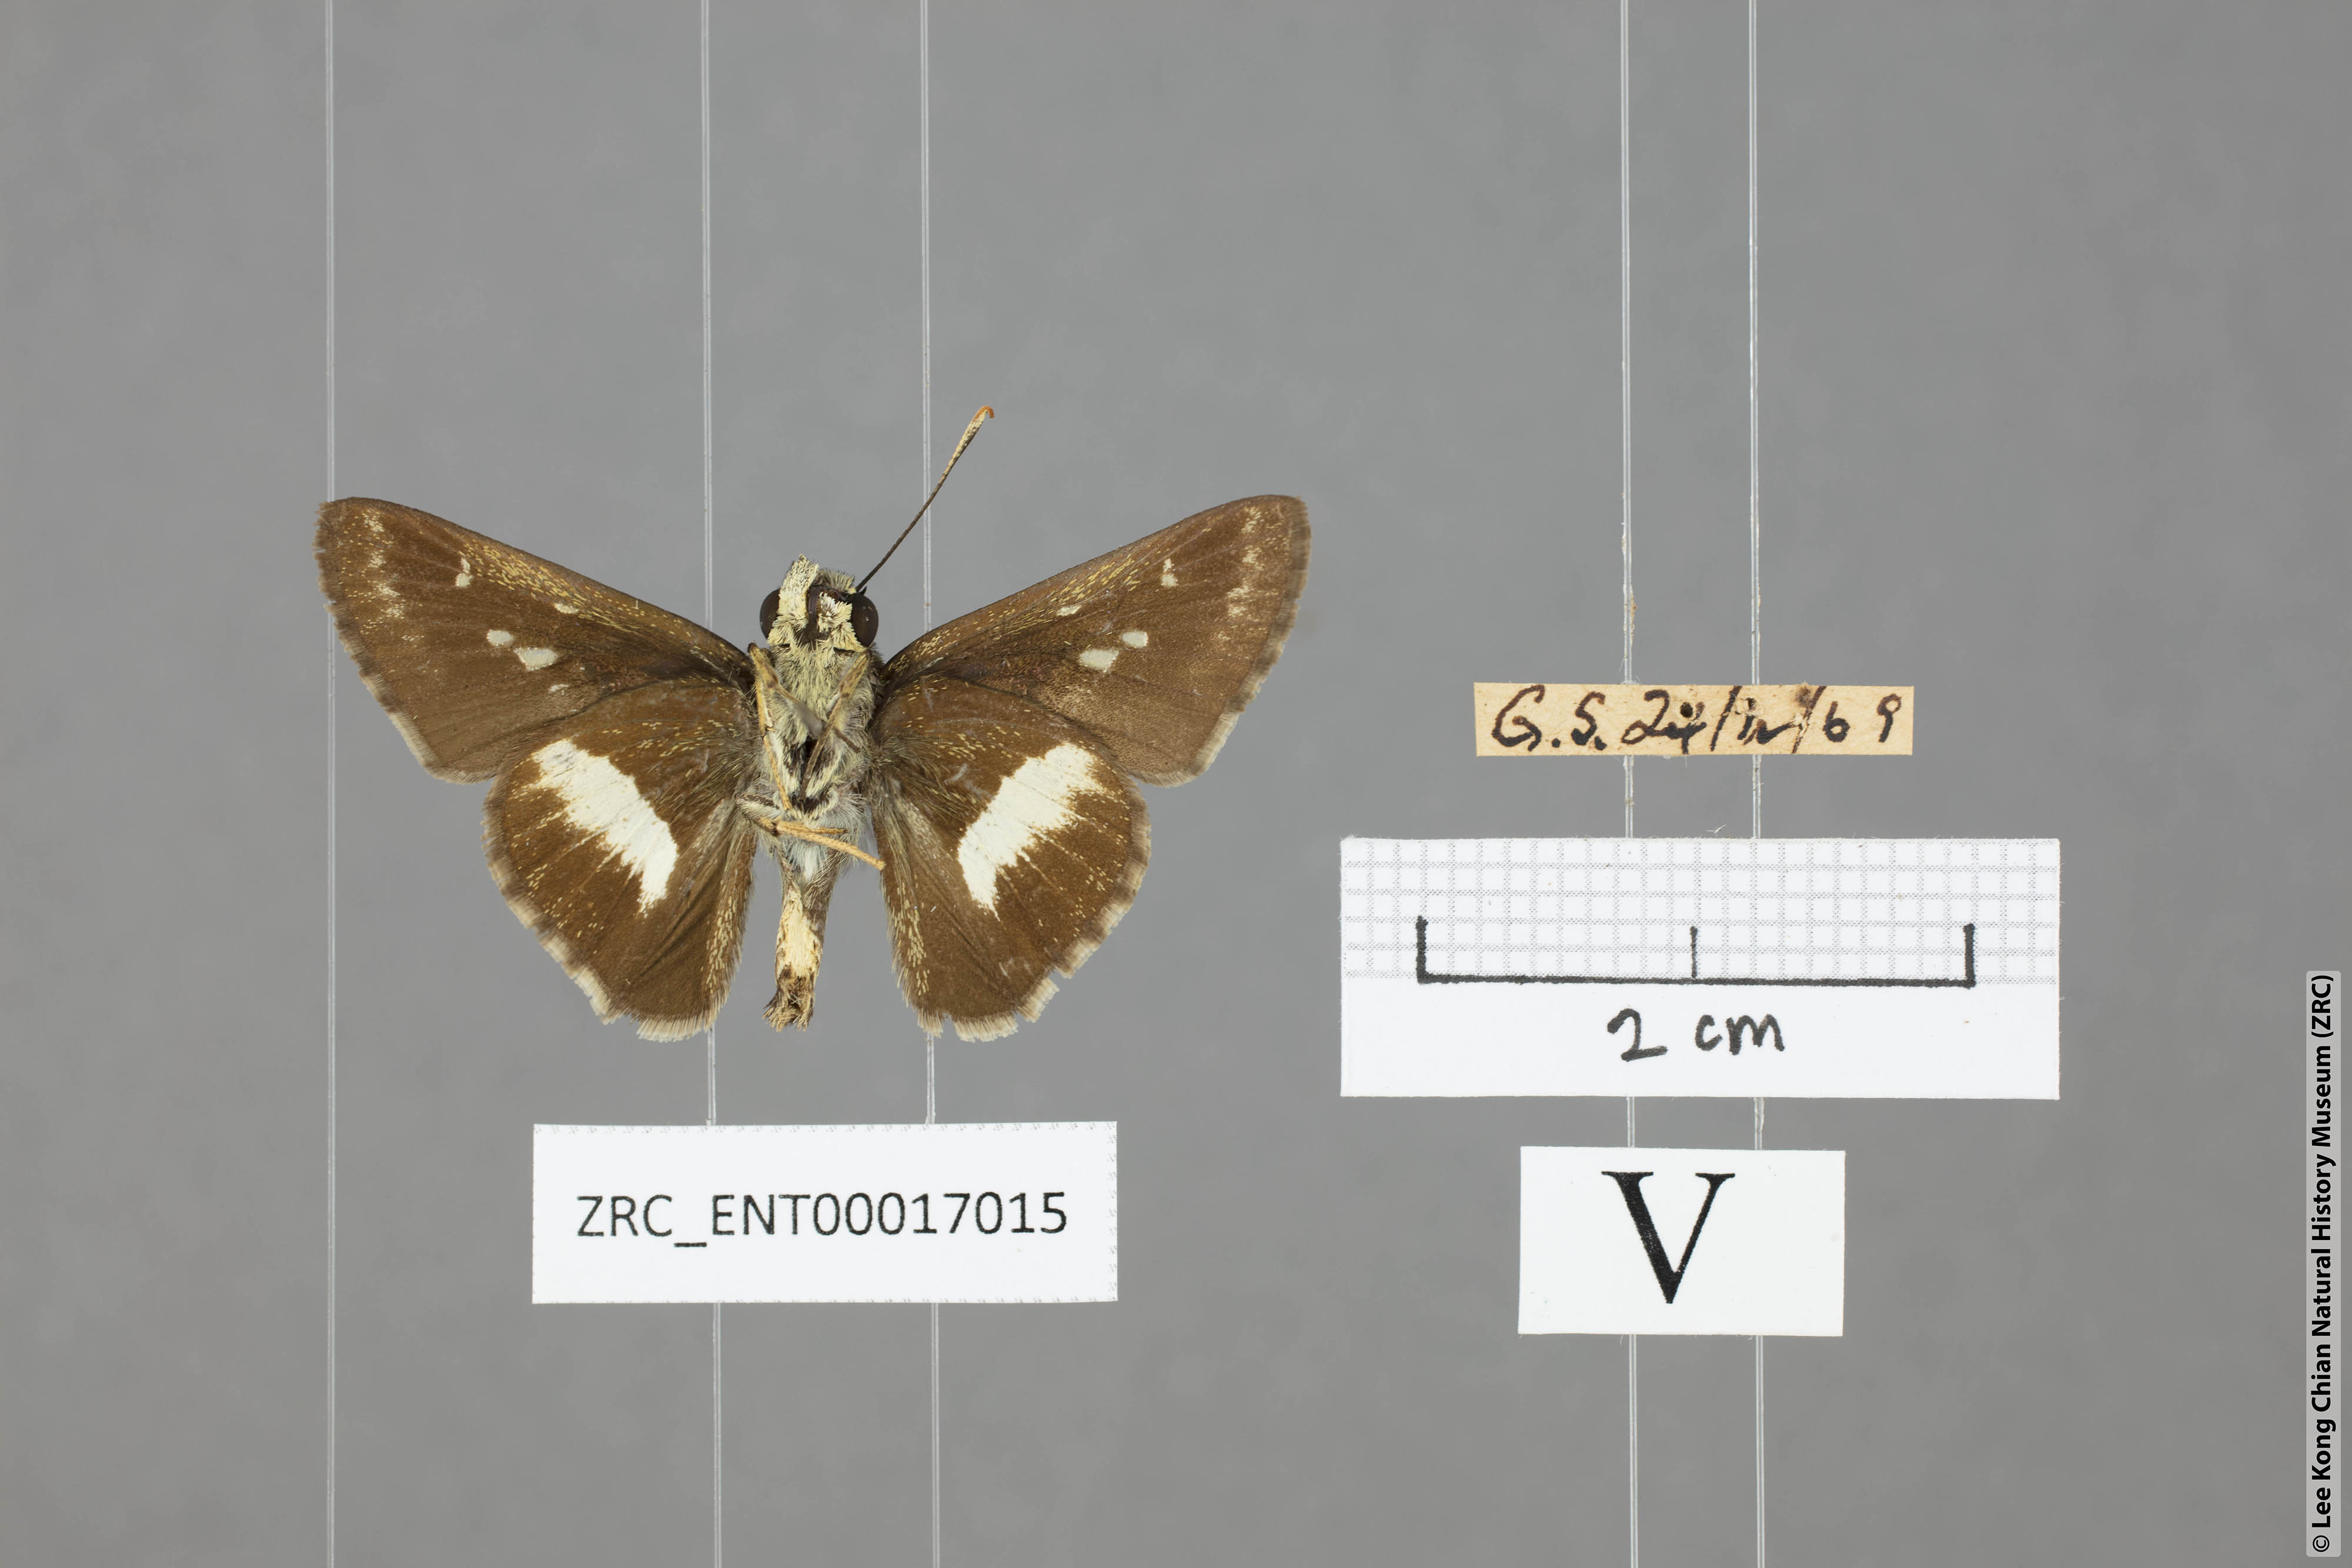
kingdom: Animalia
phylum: Arthropoda
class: Insecta
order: Lepidoptera
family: Hesperiidae
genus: Halpe
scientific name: Halpe
